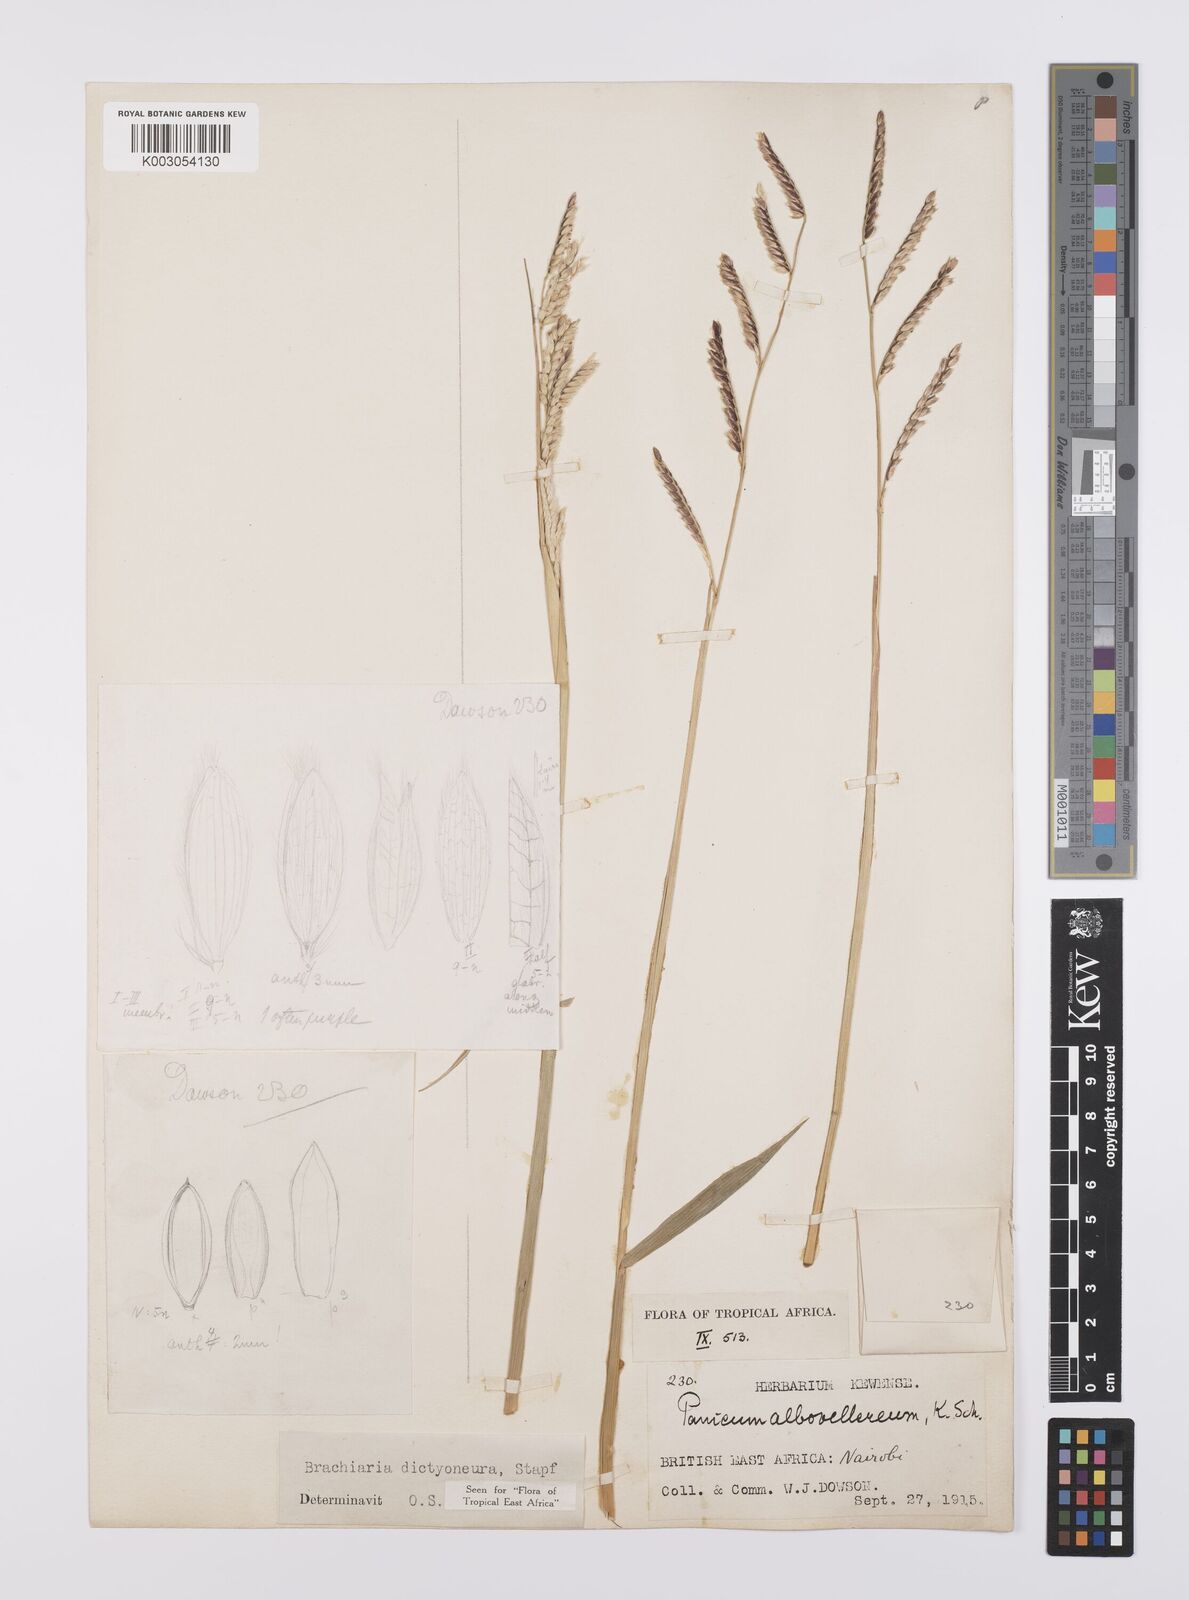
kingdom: Plantae
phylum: Tracheophyta
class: Liliopsida
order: Poales
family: Poaceae
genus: Urochloa
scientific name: Urochloa dictyoneura
